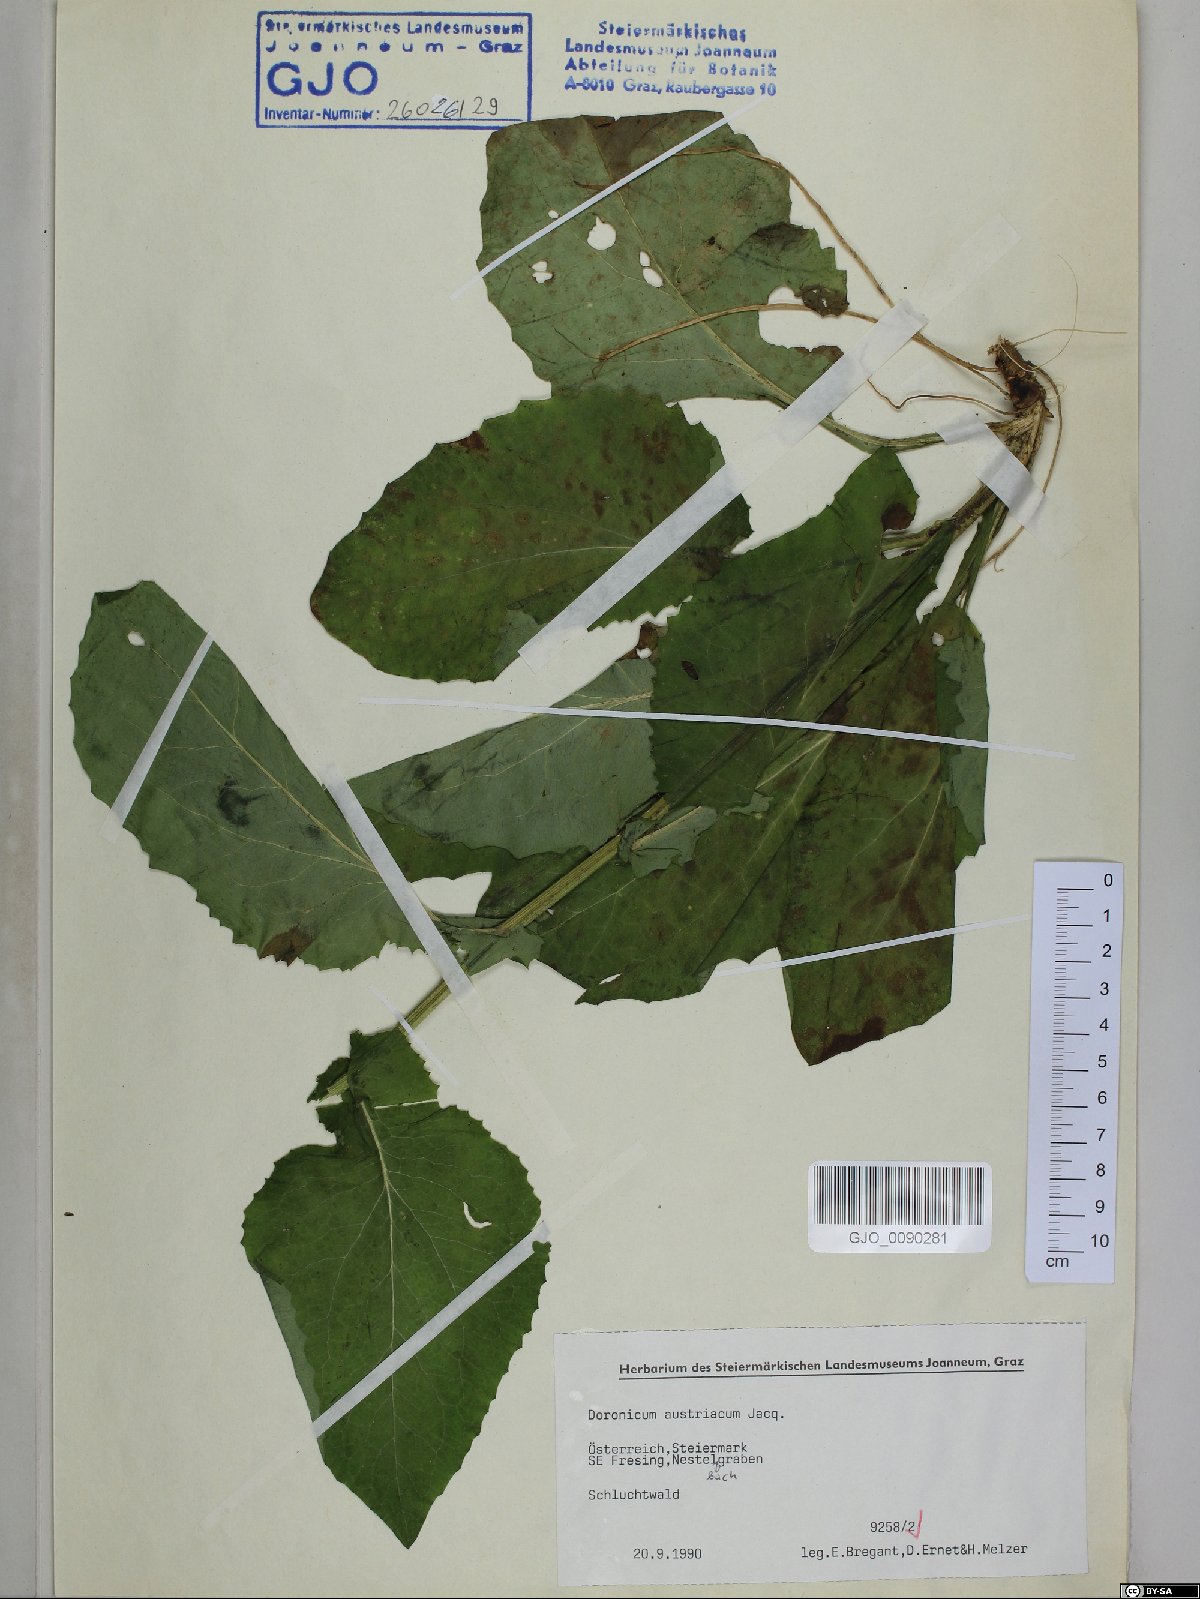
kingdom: Plantae
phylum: Tracheophyta
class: Magnoliopsida
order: Asterales
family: Asteraceae
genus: Doronicum
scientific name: Doronicum austriacum
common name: Austrian leopard's-bane
